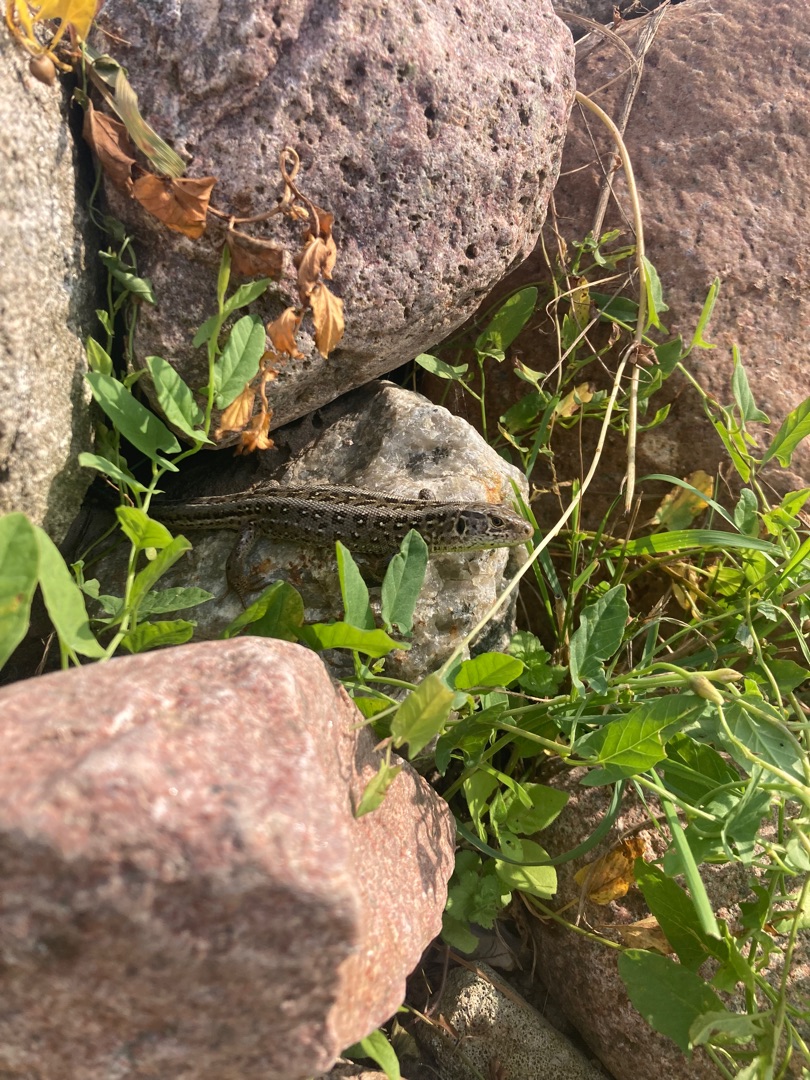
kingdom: Animalia
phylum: Chordata
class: Squamata
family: Lacertidae
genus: Lacerta
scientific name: Lacerta agilis
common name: Markfirben
